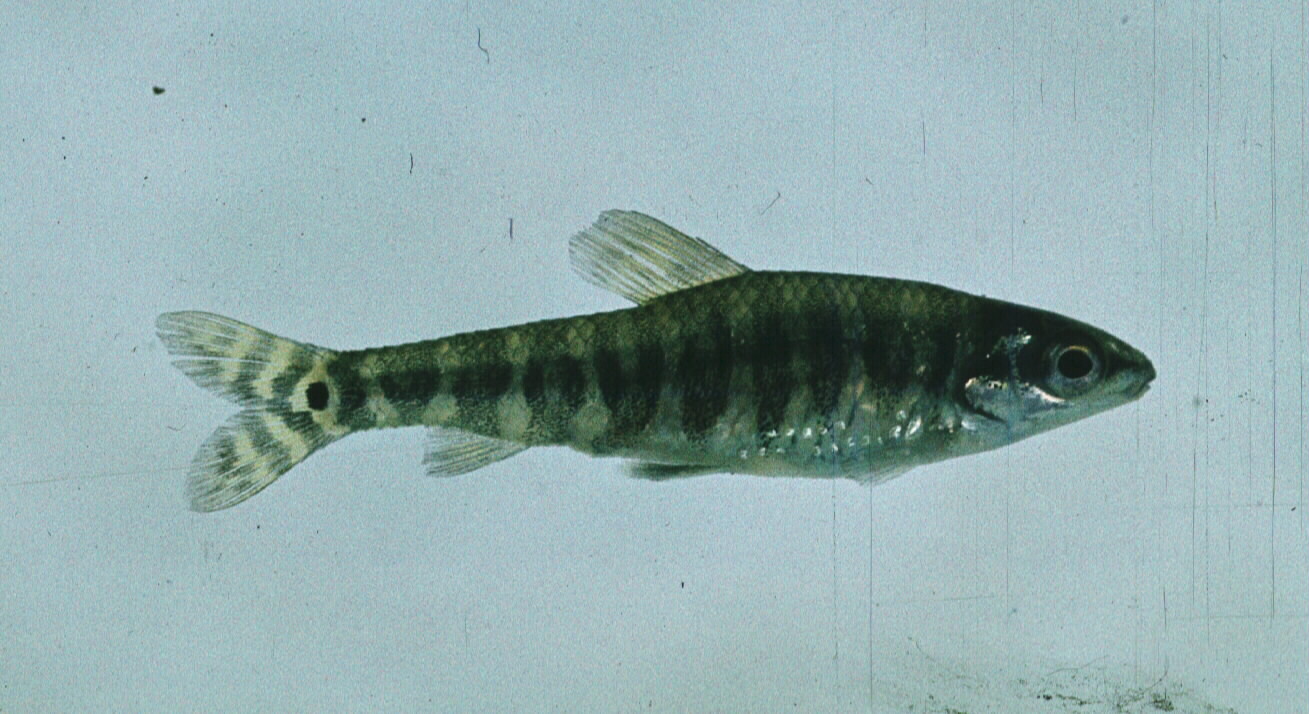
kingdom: Animalia
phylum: Chordata
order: Characiformes
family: Distichodontidae
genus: Nannocharax
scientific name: Nannocharax machadoi
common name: Dwarf citharine
